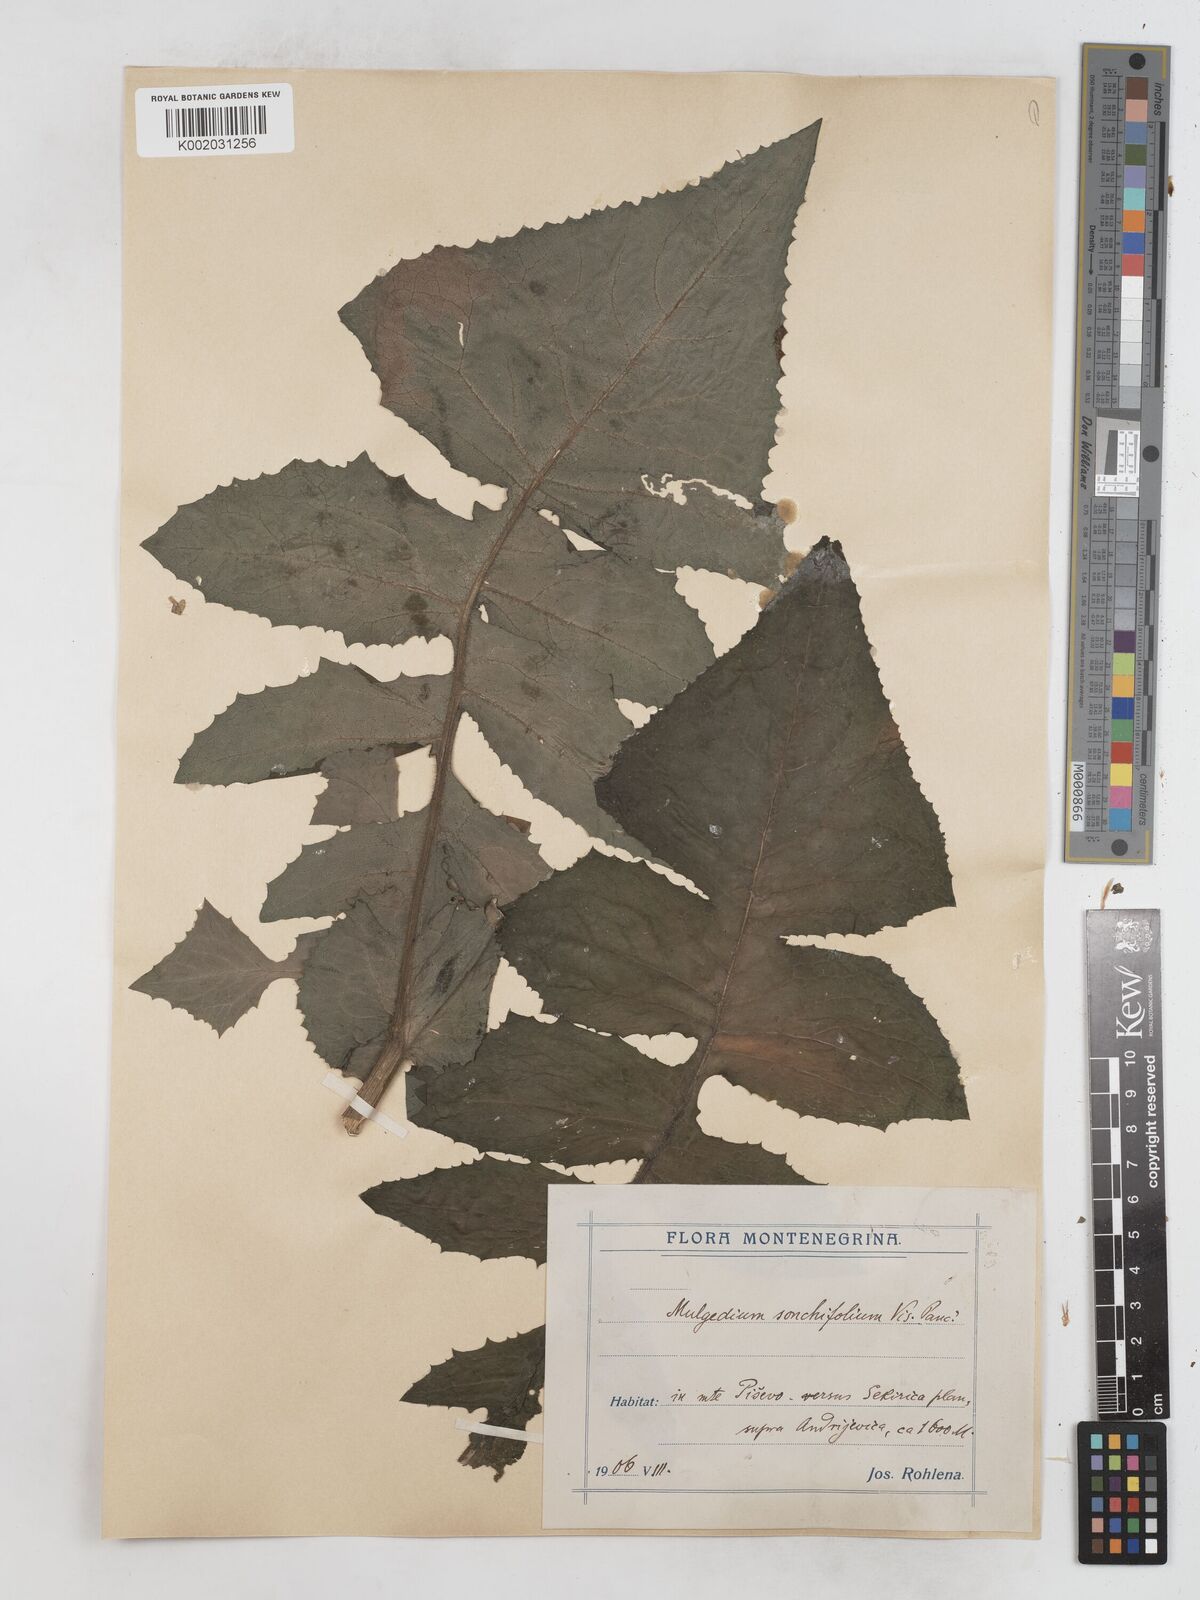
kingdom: Plantae
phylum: Tracheophyta
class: Magnoliopsida
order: Asterales
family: Asteraceae
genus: Lactuca
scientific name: Lactuca sonchifolia
